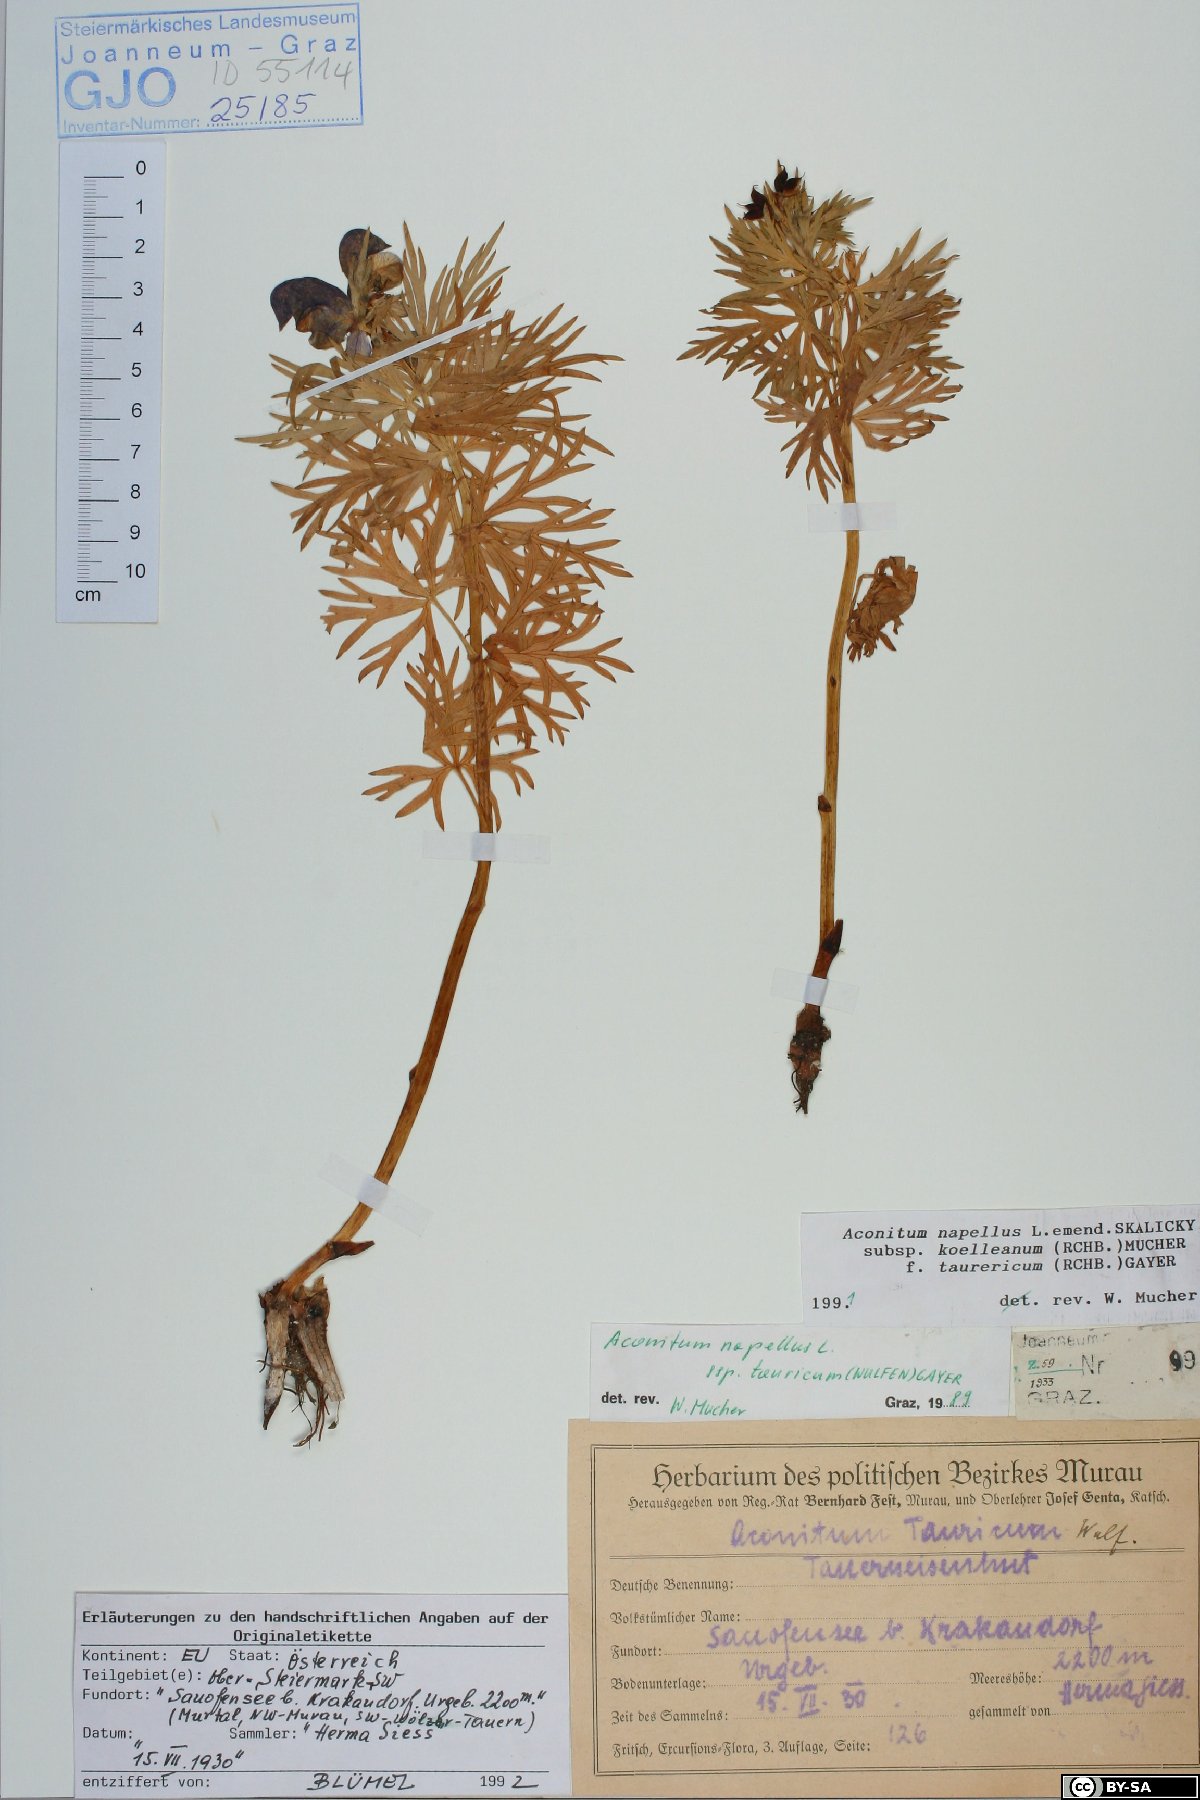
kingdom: Plantae
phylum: Tracheophyta
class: Magnoliopsida
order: Ranunculales
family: Ranunculaceae
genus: Aconitum
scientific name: Aconitum tauricum
